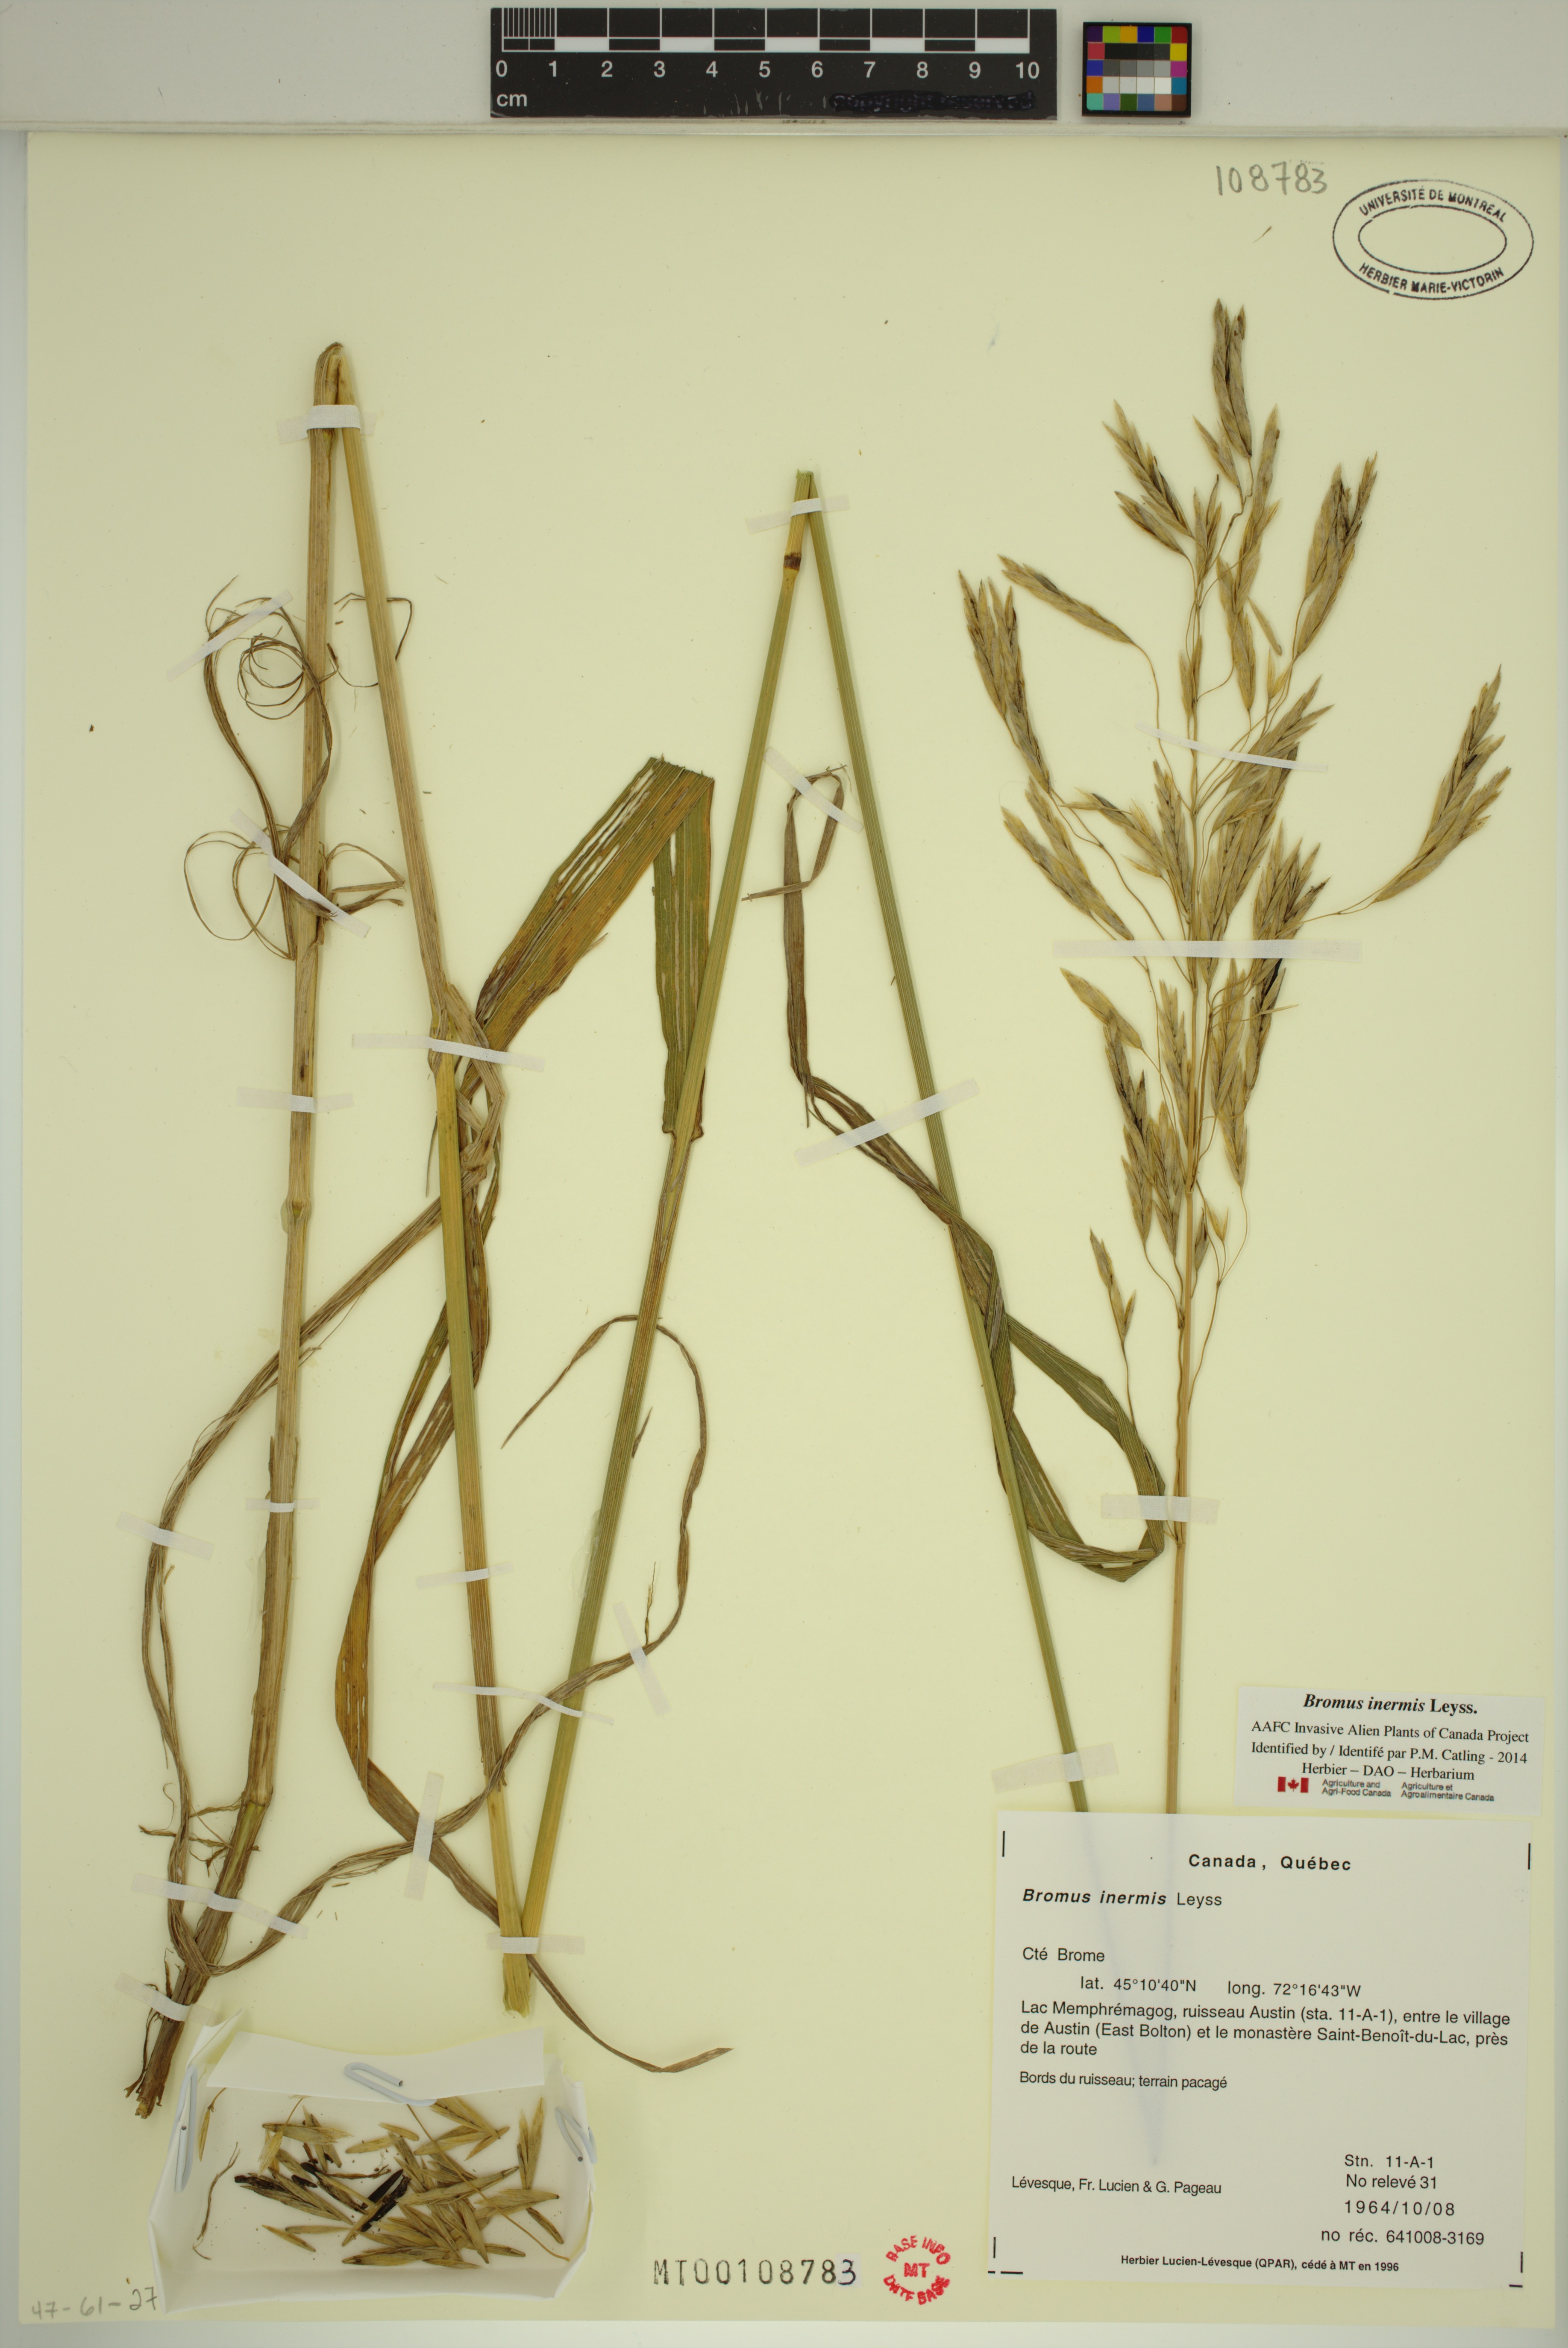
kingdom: Plantae
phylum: Tracheophyta
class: Liliopsida
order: Poales
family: Poaceae
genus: Bromus
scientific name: Bromus inermis
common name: Smooth brome
